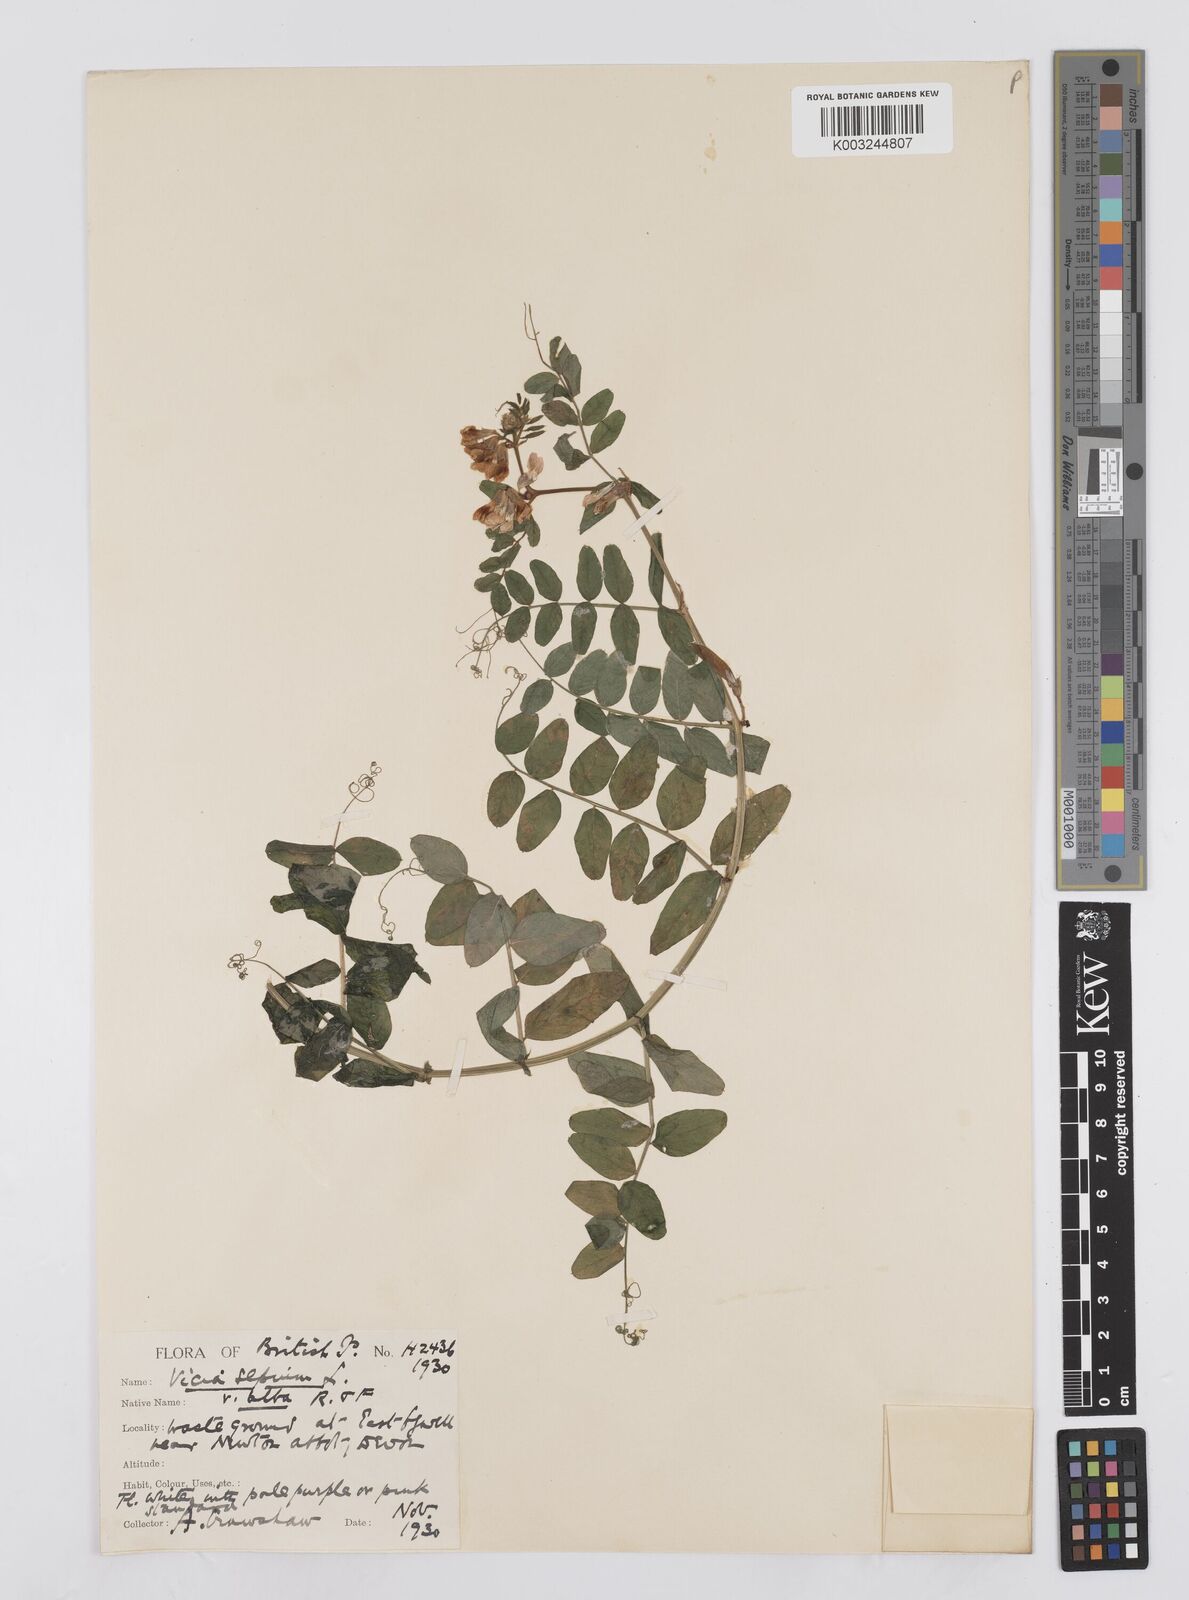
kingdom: Plantae
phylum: Tracheophyta
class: Magnoliopsida
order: Fabales
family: Fabaceae
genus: Vicia
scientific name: Vicia sepium
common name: Bush vetch
